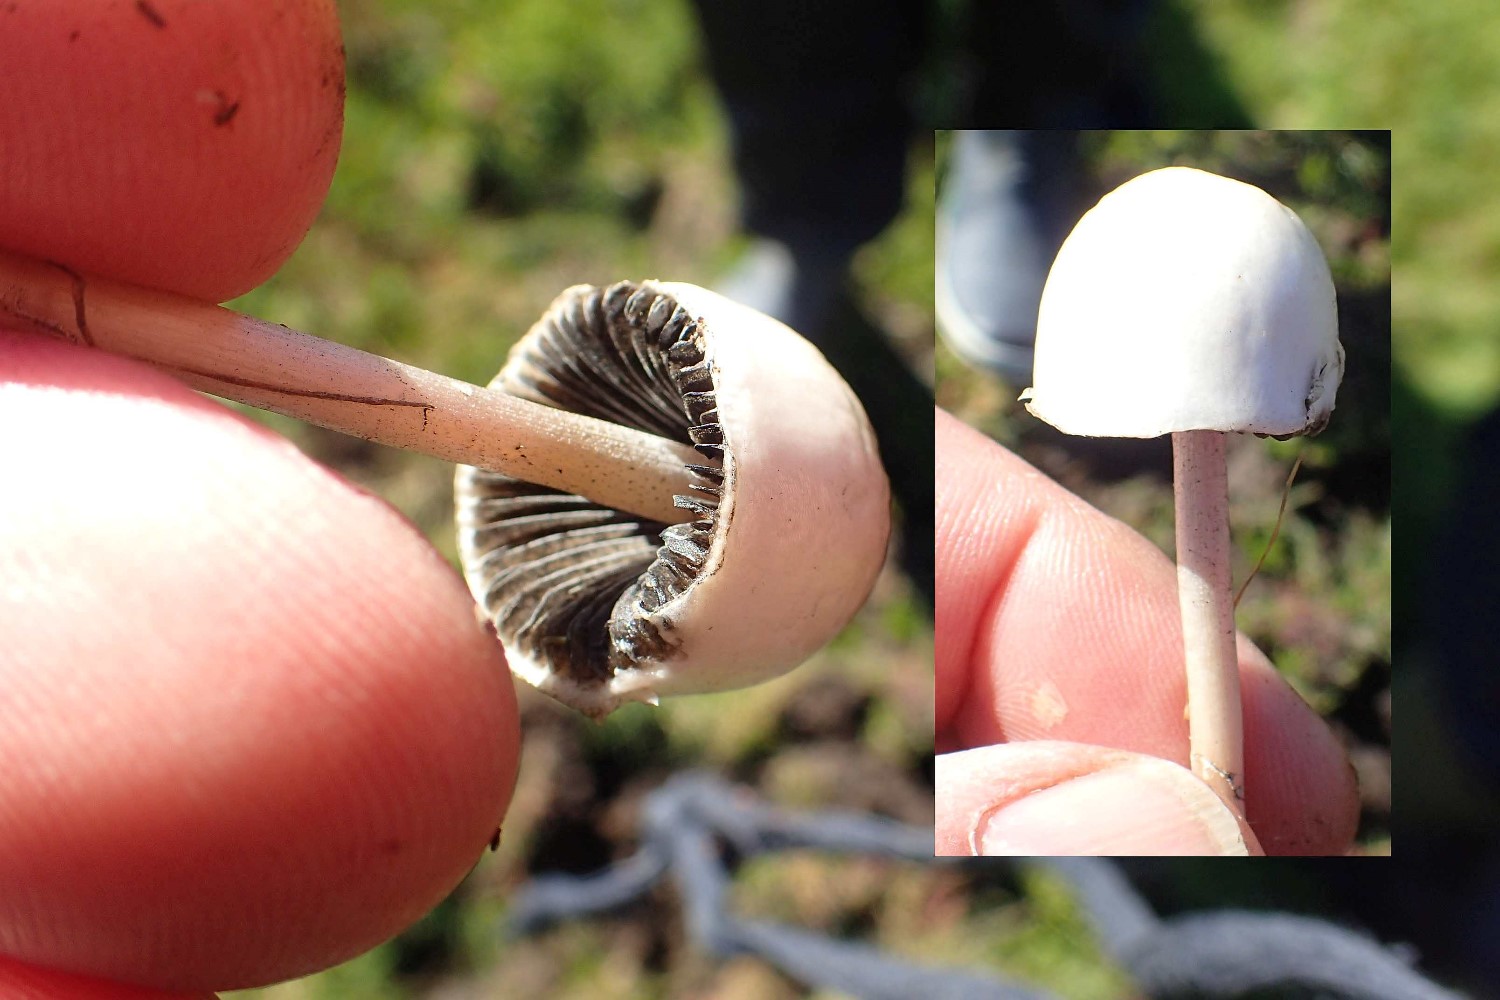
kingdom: Fungi
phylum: Basidiomycota
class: Agaricomycetes
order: Agaricales
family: Bolbitiaceae
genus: Panaeolus
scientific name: Panaeolus
